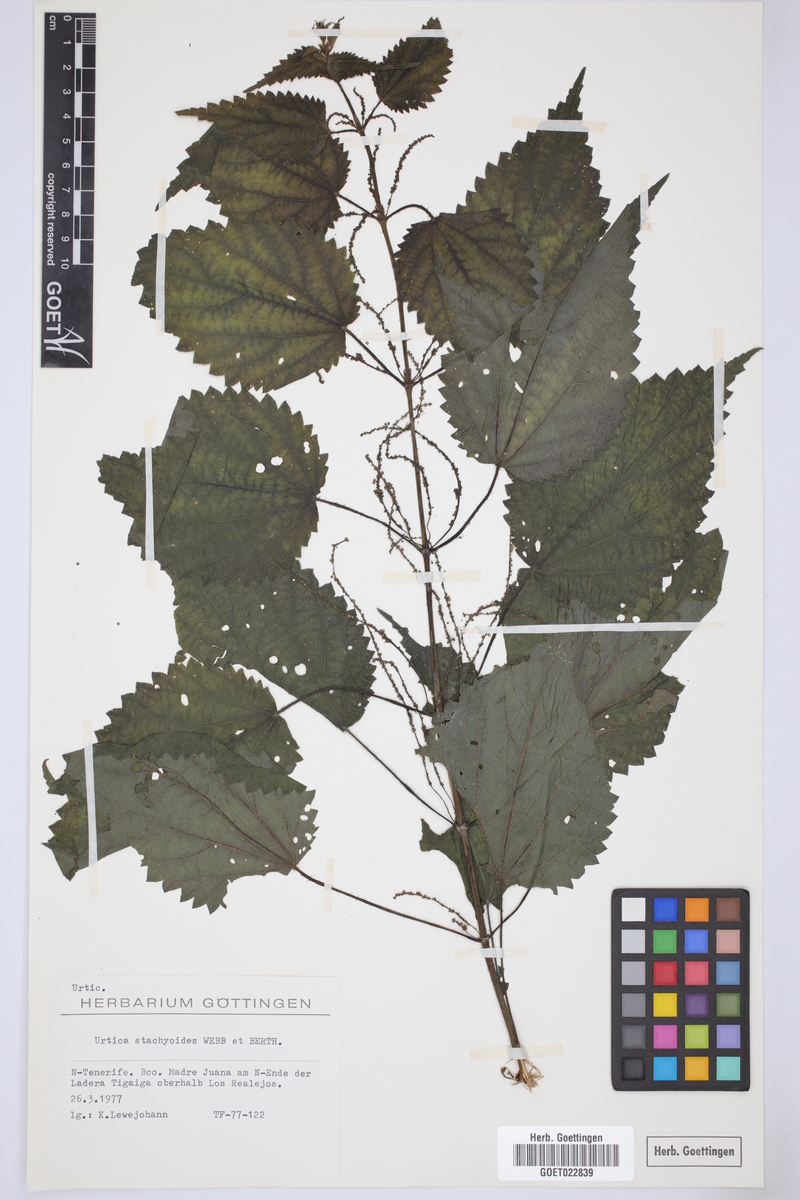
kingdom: Plantae
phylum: Tracheophyta
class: Magnoliopsida
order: Rosales
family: Urticaceae
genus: Urtica
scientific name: Urtica stachyoides
